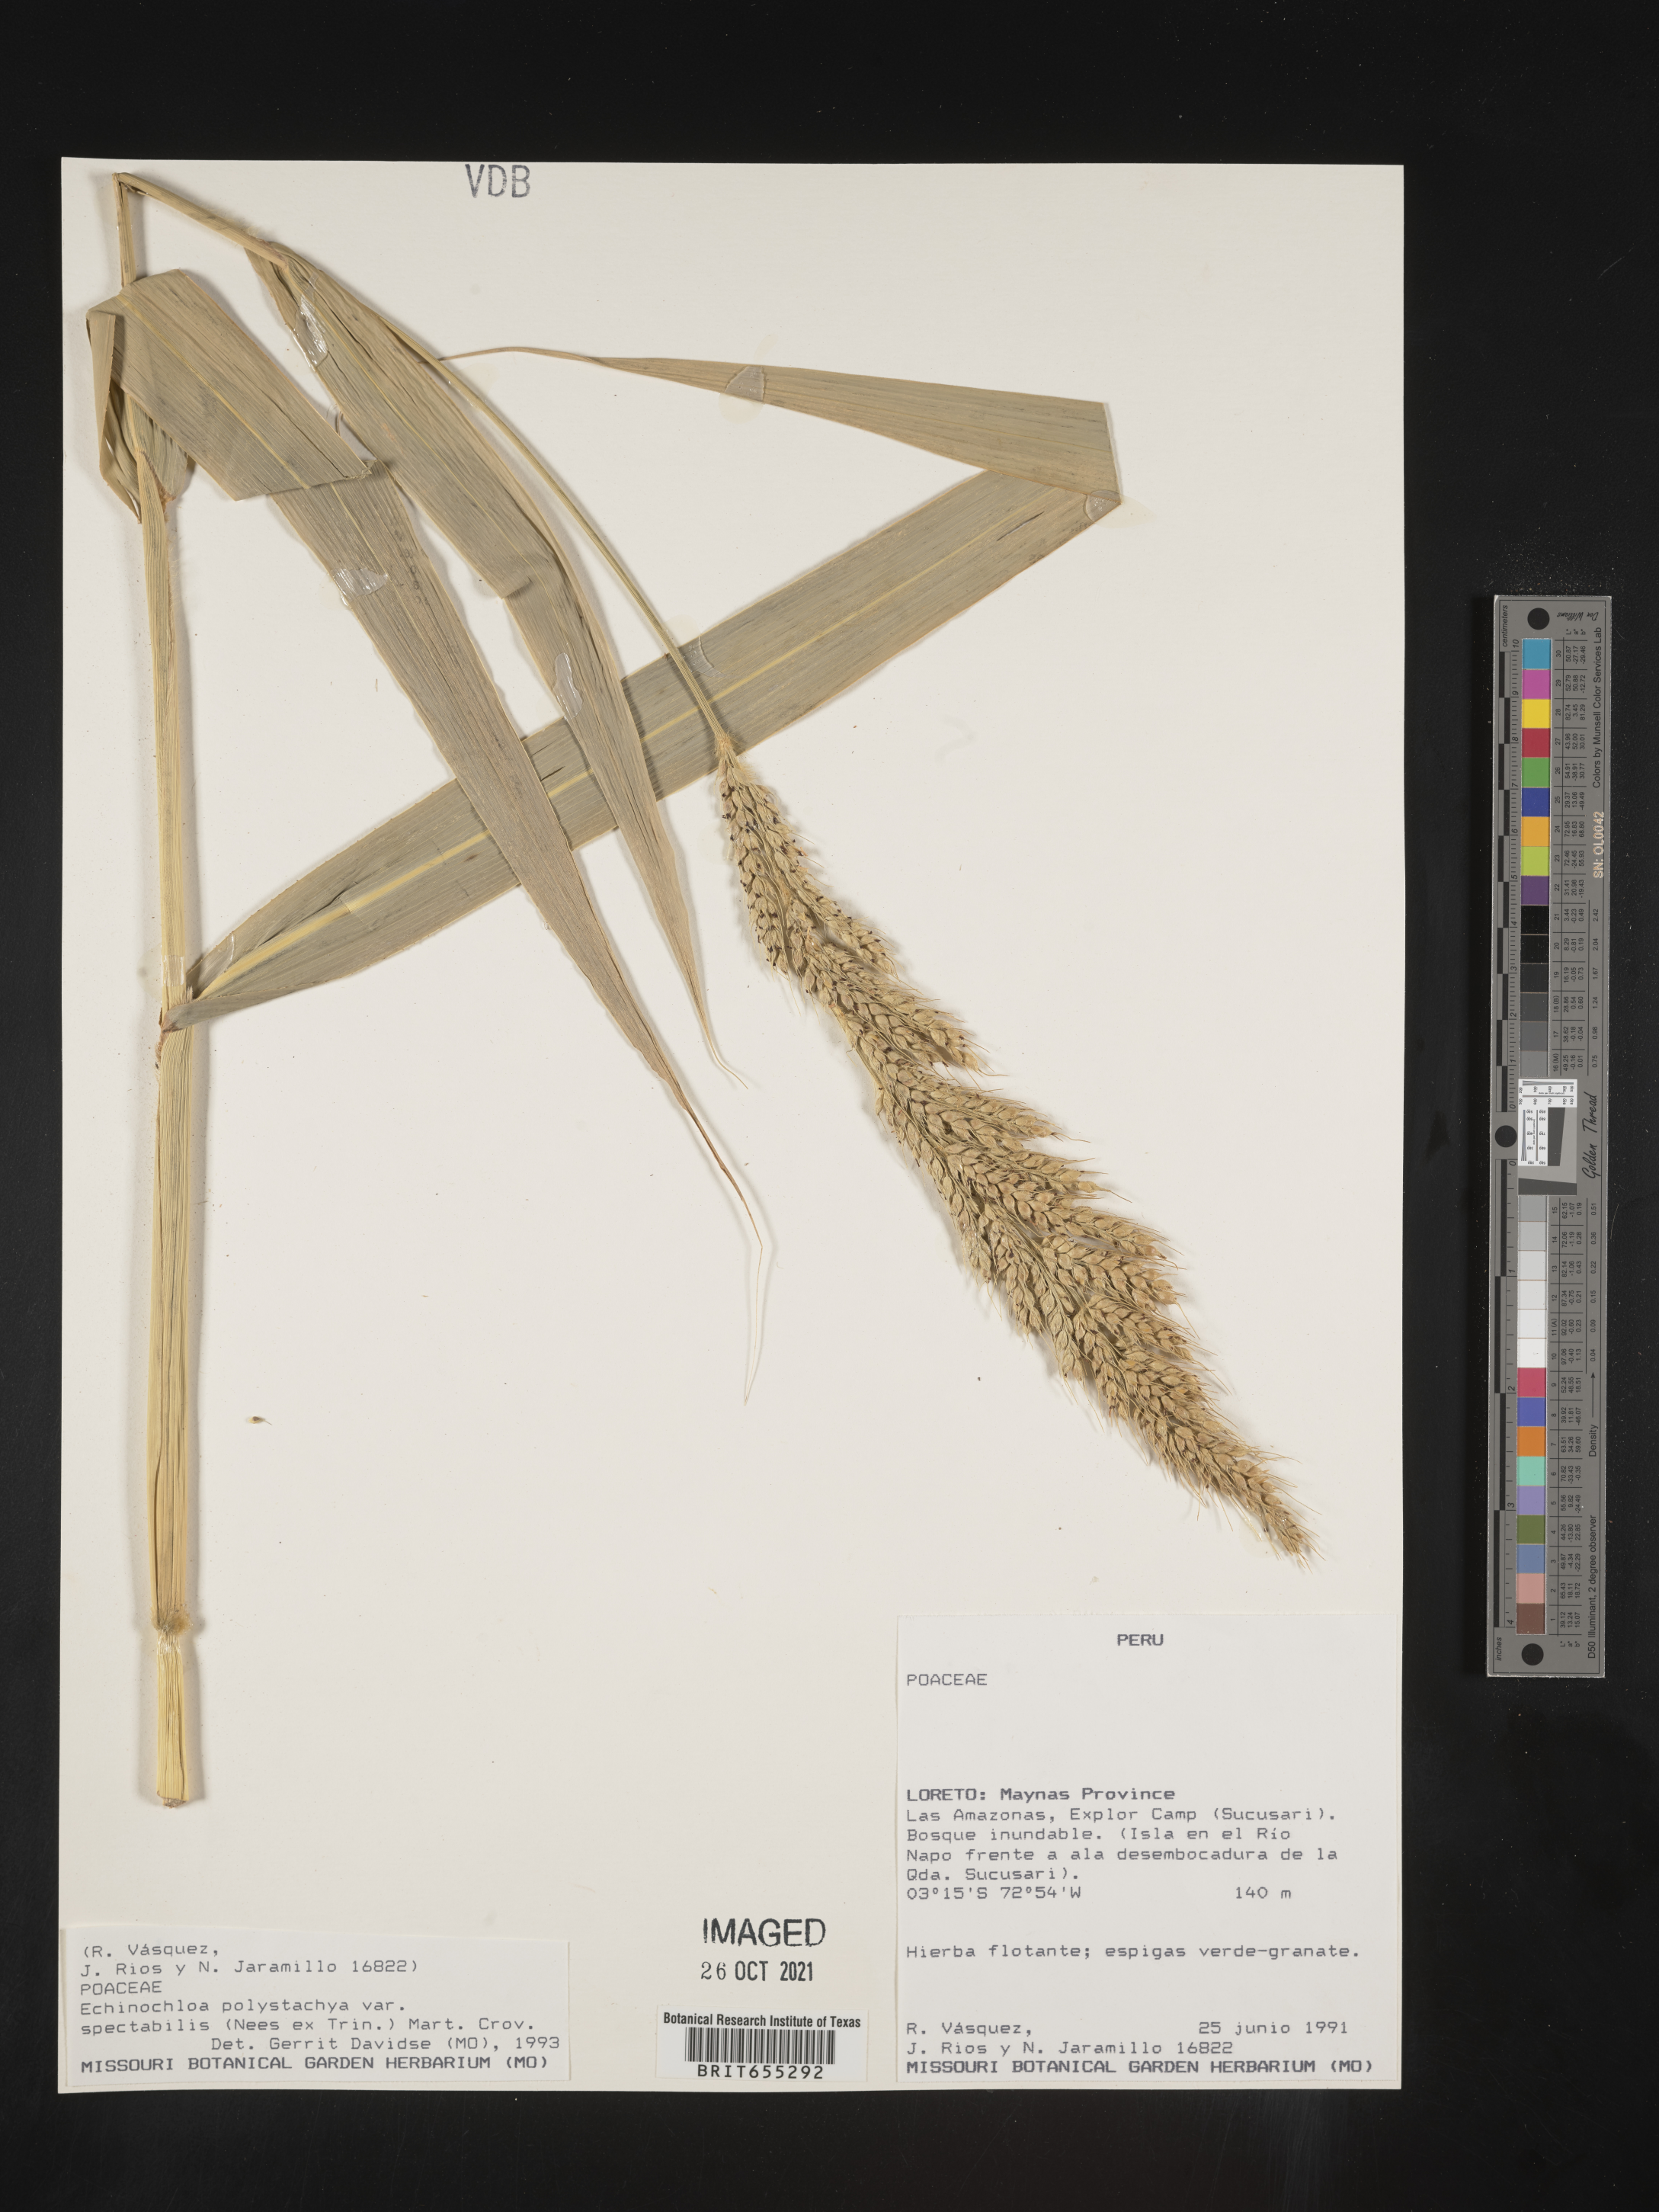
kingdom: Plantae
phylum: Tracheophyta
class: Liliopsida
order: Poales
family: Poaceae
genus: Echinochloa
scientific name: Echinochloa
